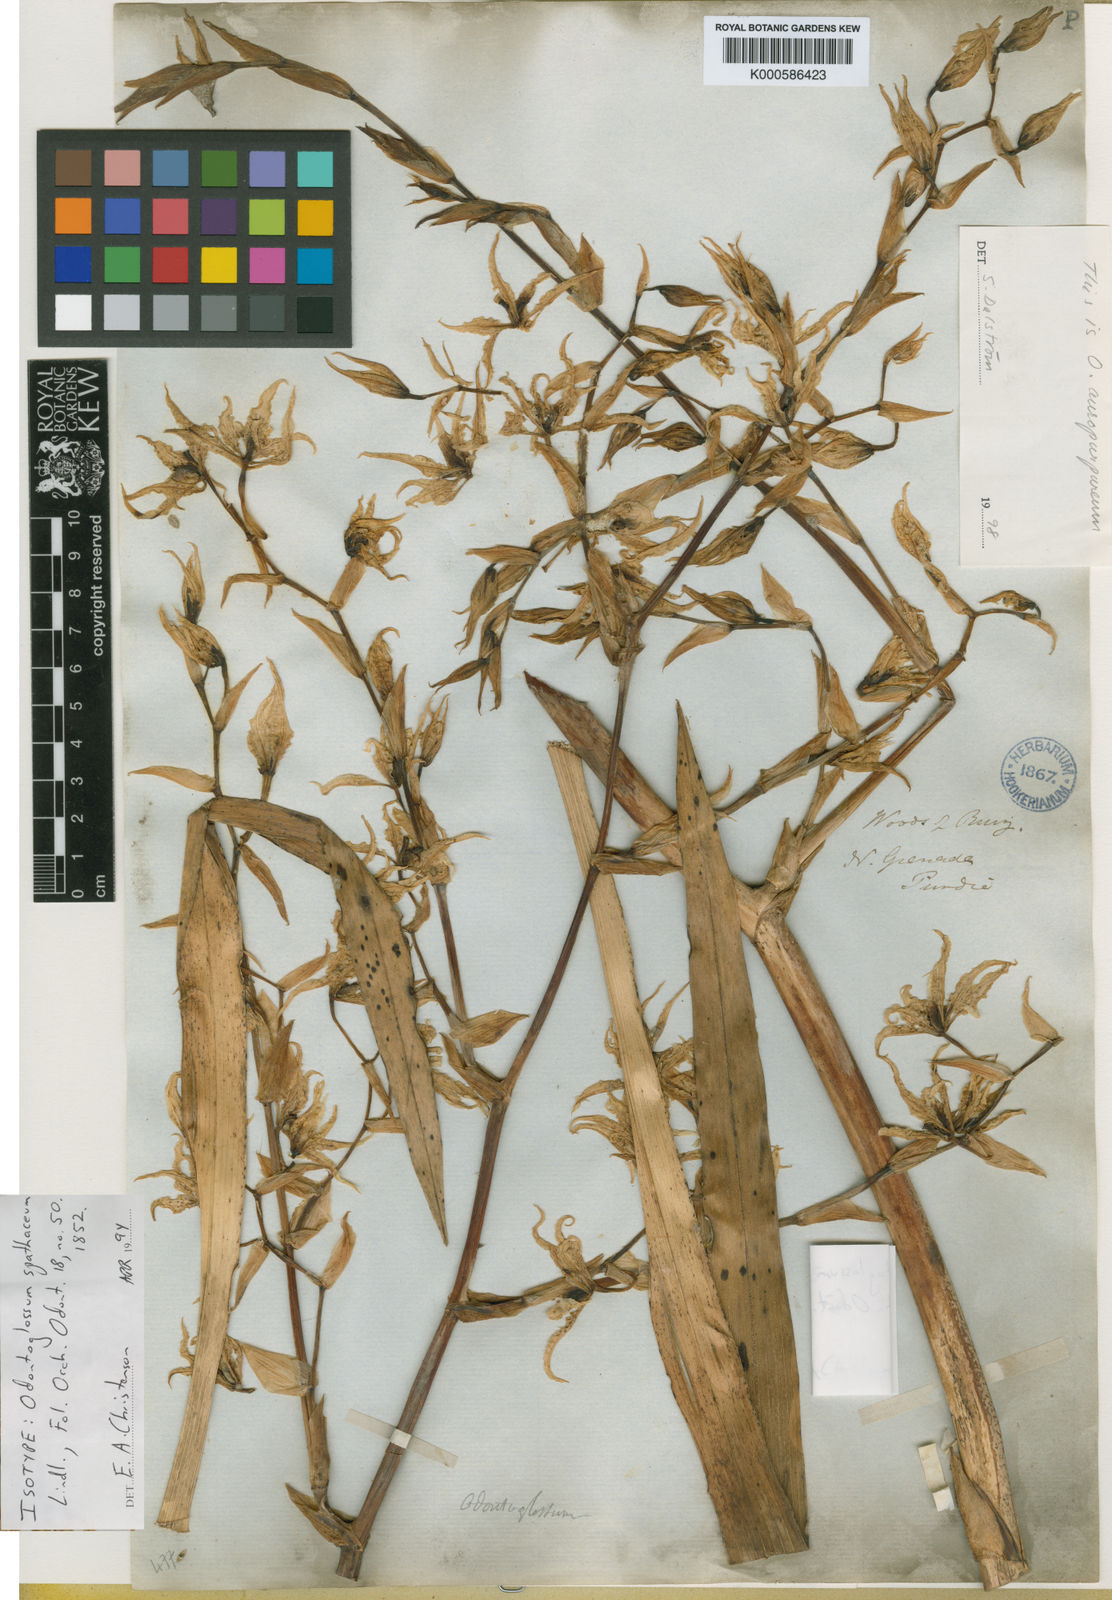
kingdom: Plantae
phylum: Tracheophyta
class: Liliopsida
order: Asparagales
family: Orchidaceae
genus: Cyrtochilum
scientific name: Cyrtochilum pardinum
